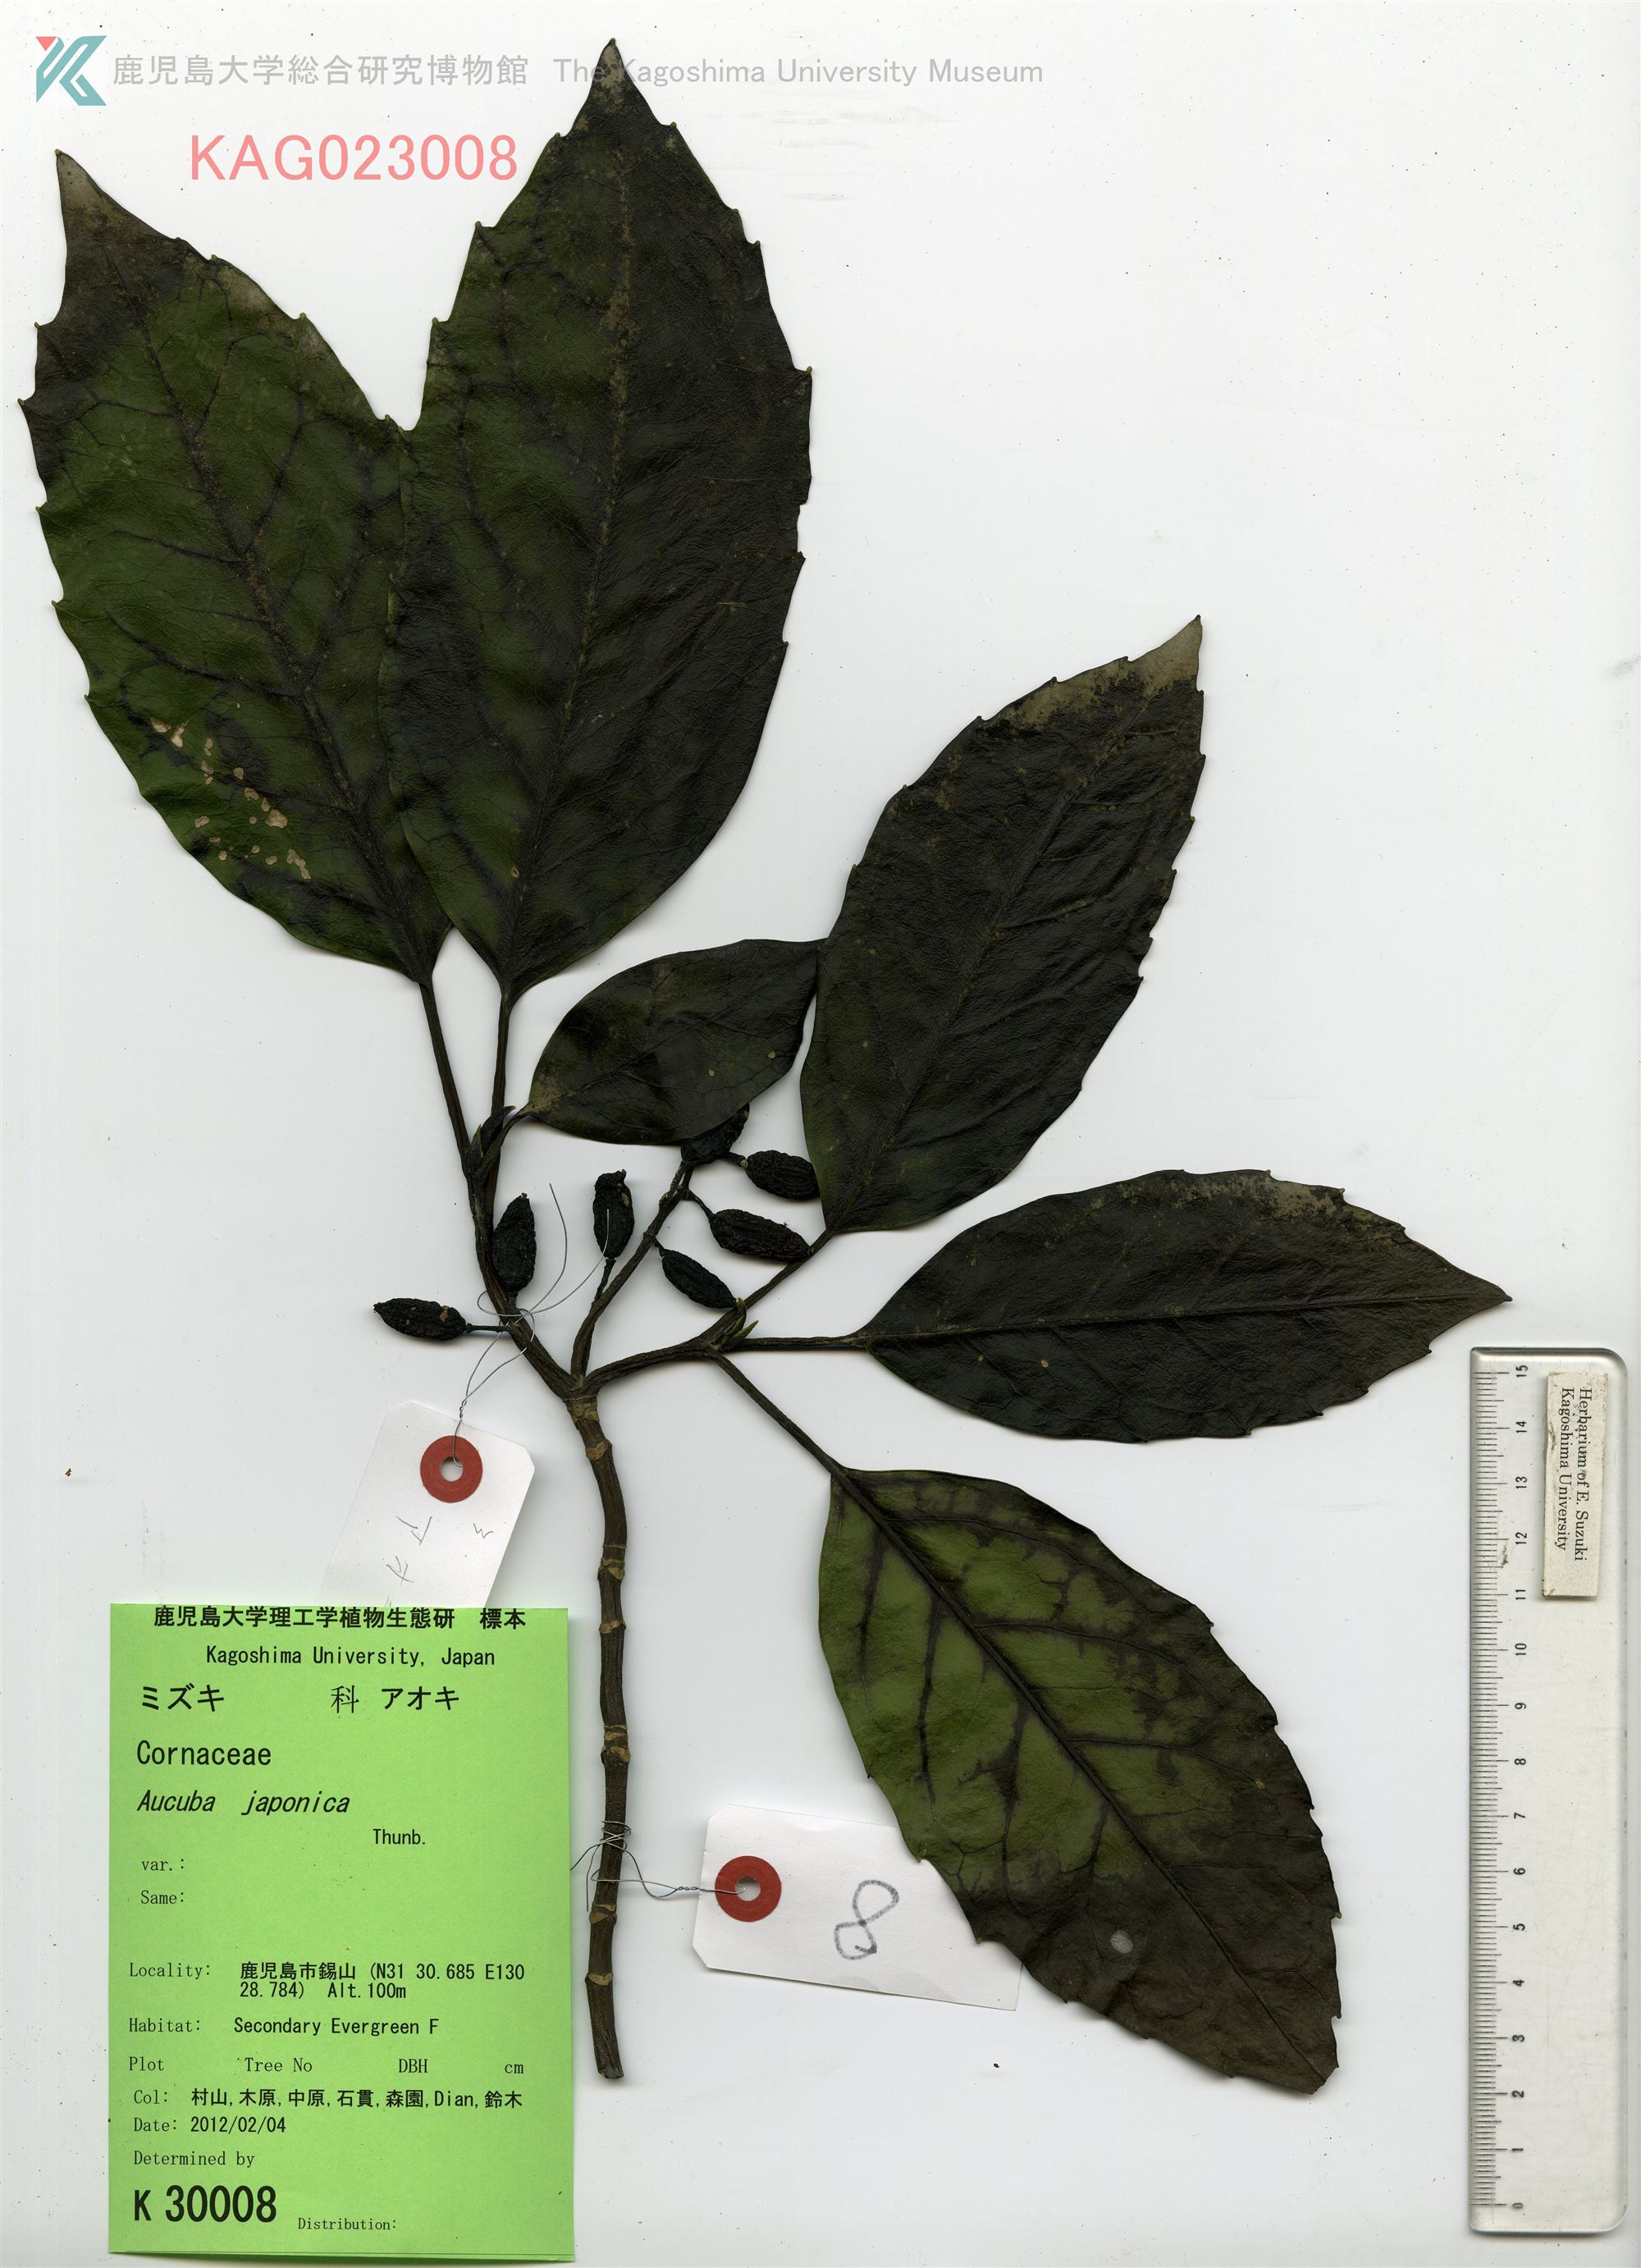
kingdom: Plantae
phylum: Tracheophyta
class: Magnoliopsida
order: Garryales
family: Garryaceae
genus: Aucuba
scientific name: Aucuba japonica
